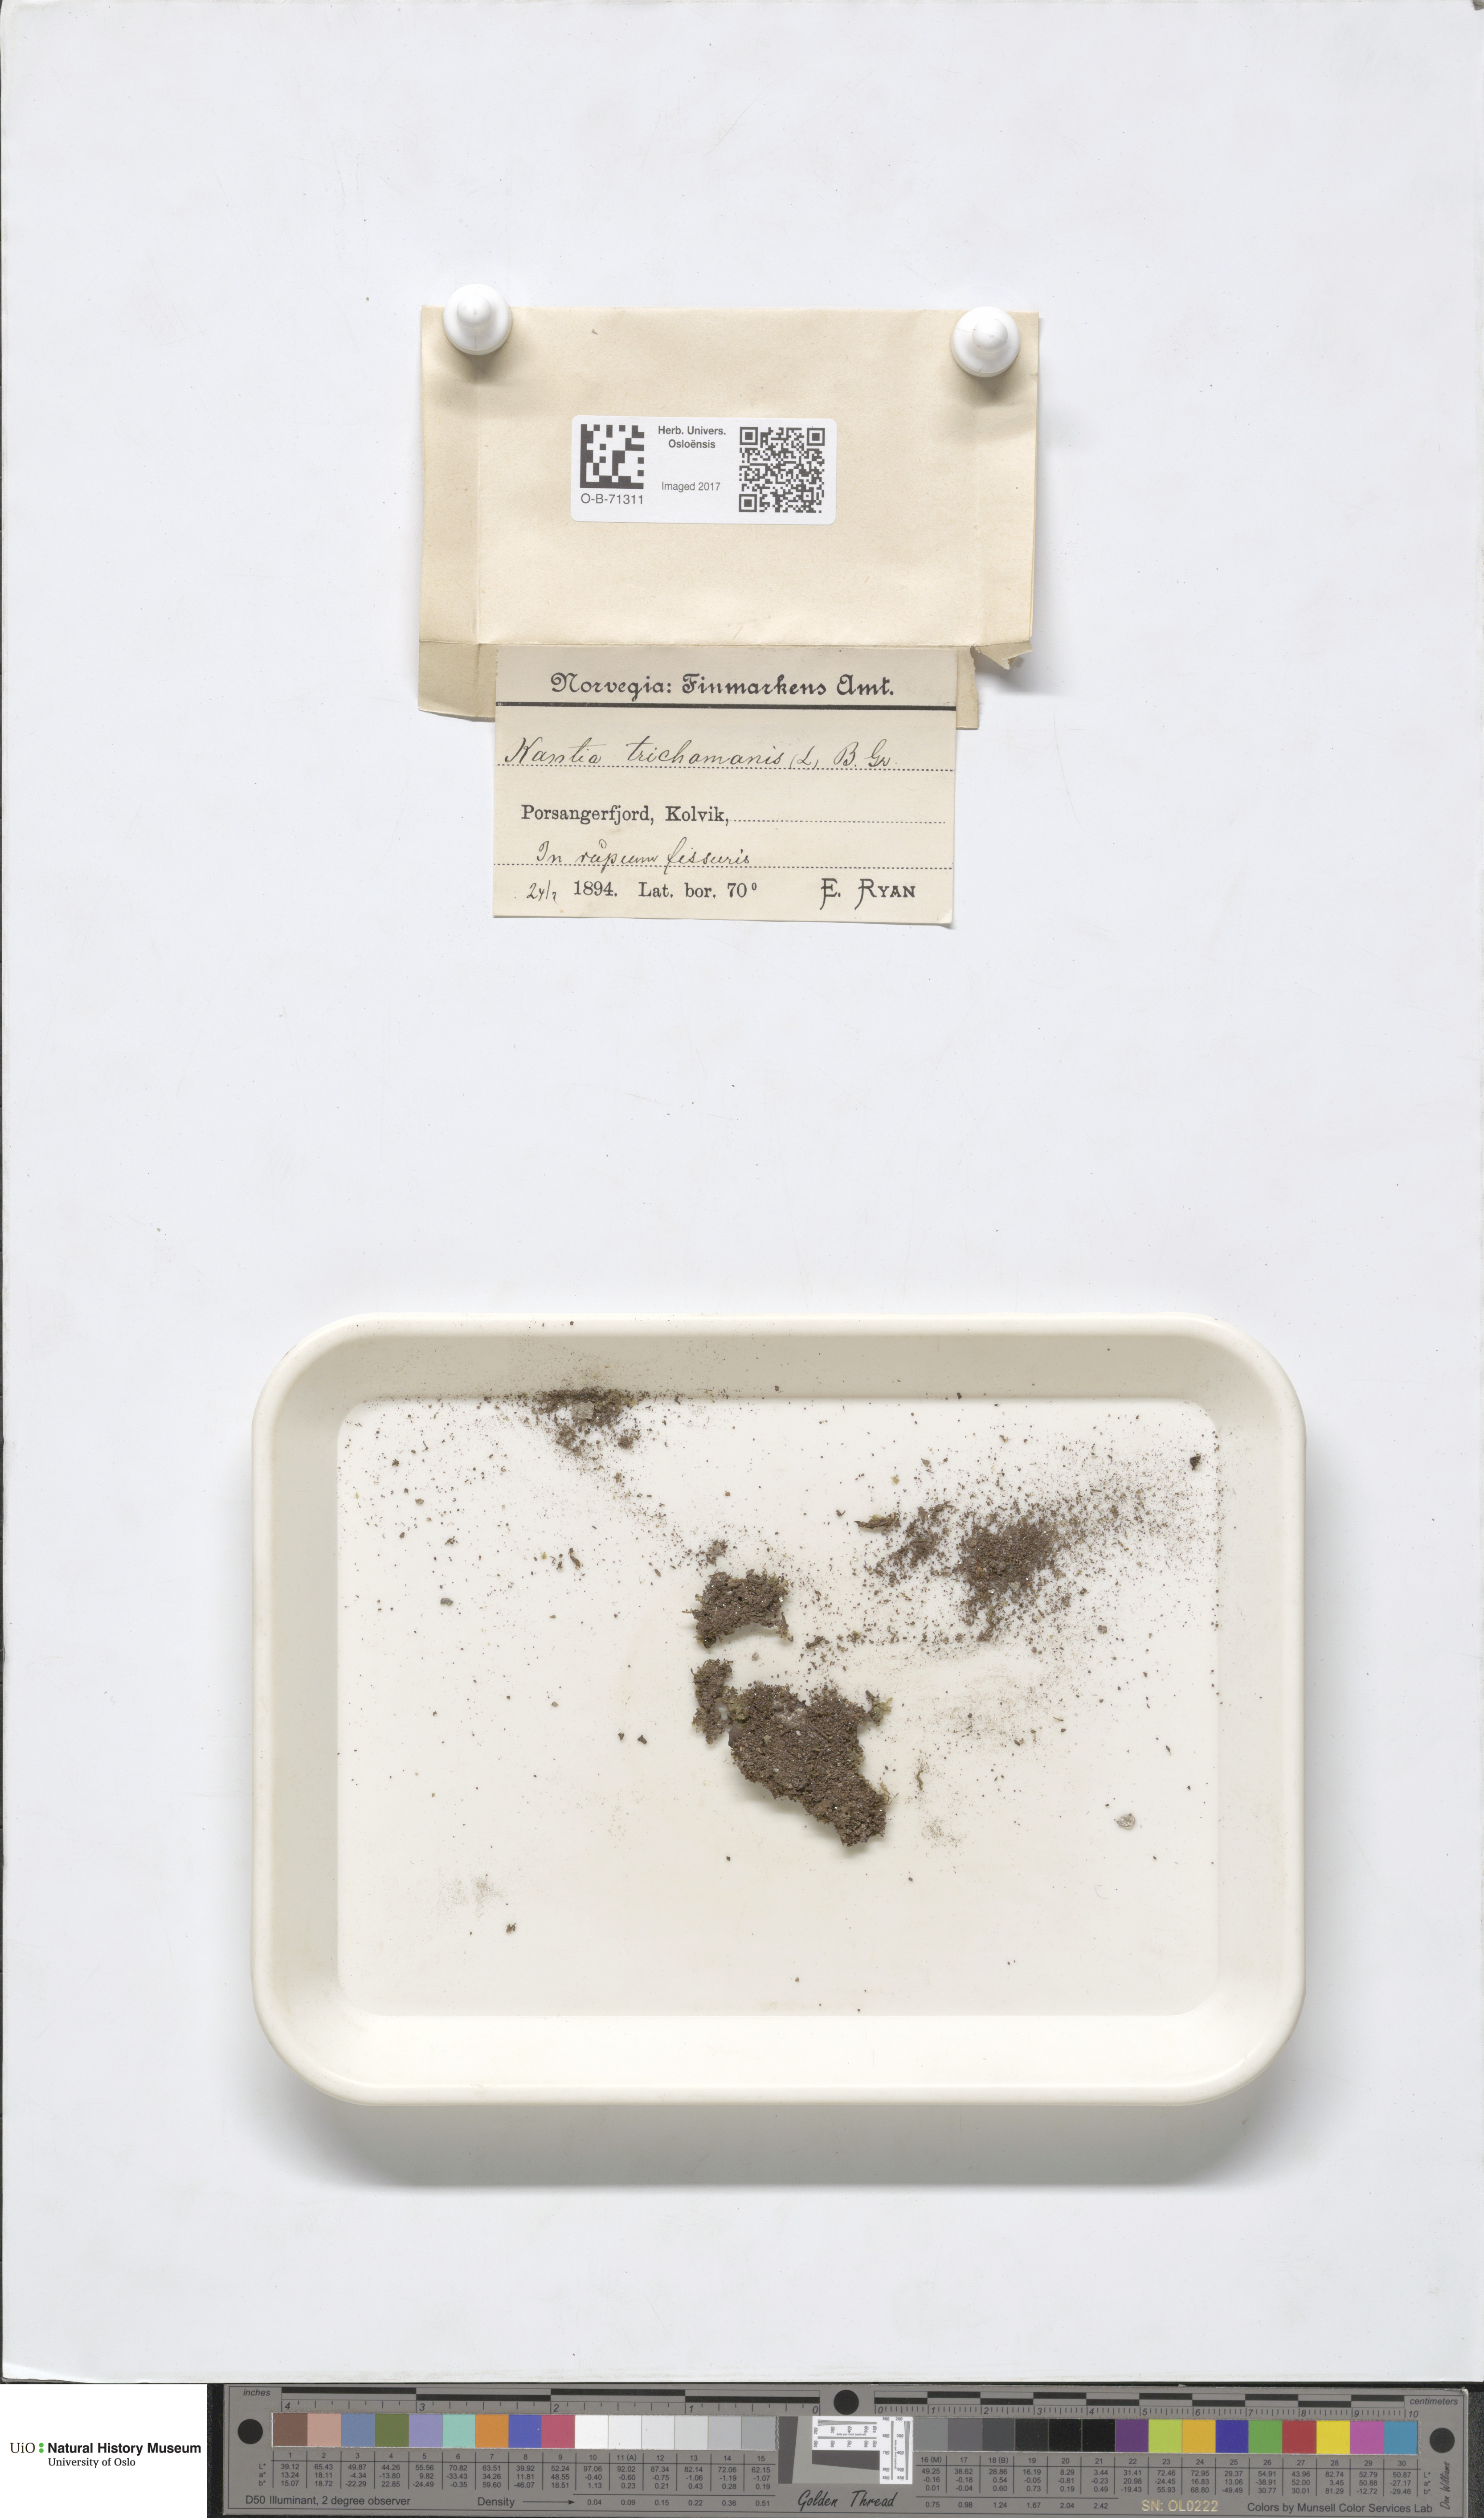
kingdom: Plantae
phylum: Marchantiophyta
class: Jungermanniopsida
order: Jungermanniales
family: Calypogeiaceae
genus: Calypogeia
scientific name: Calypogeia neesiana
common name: Nees  pouchwort
